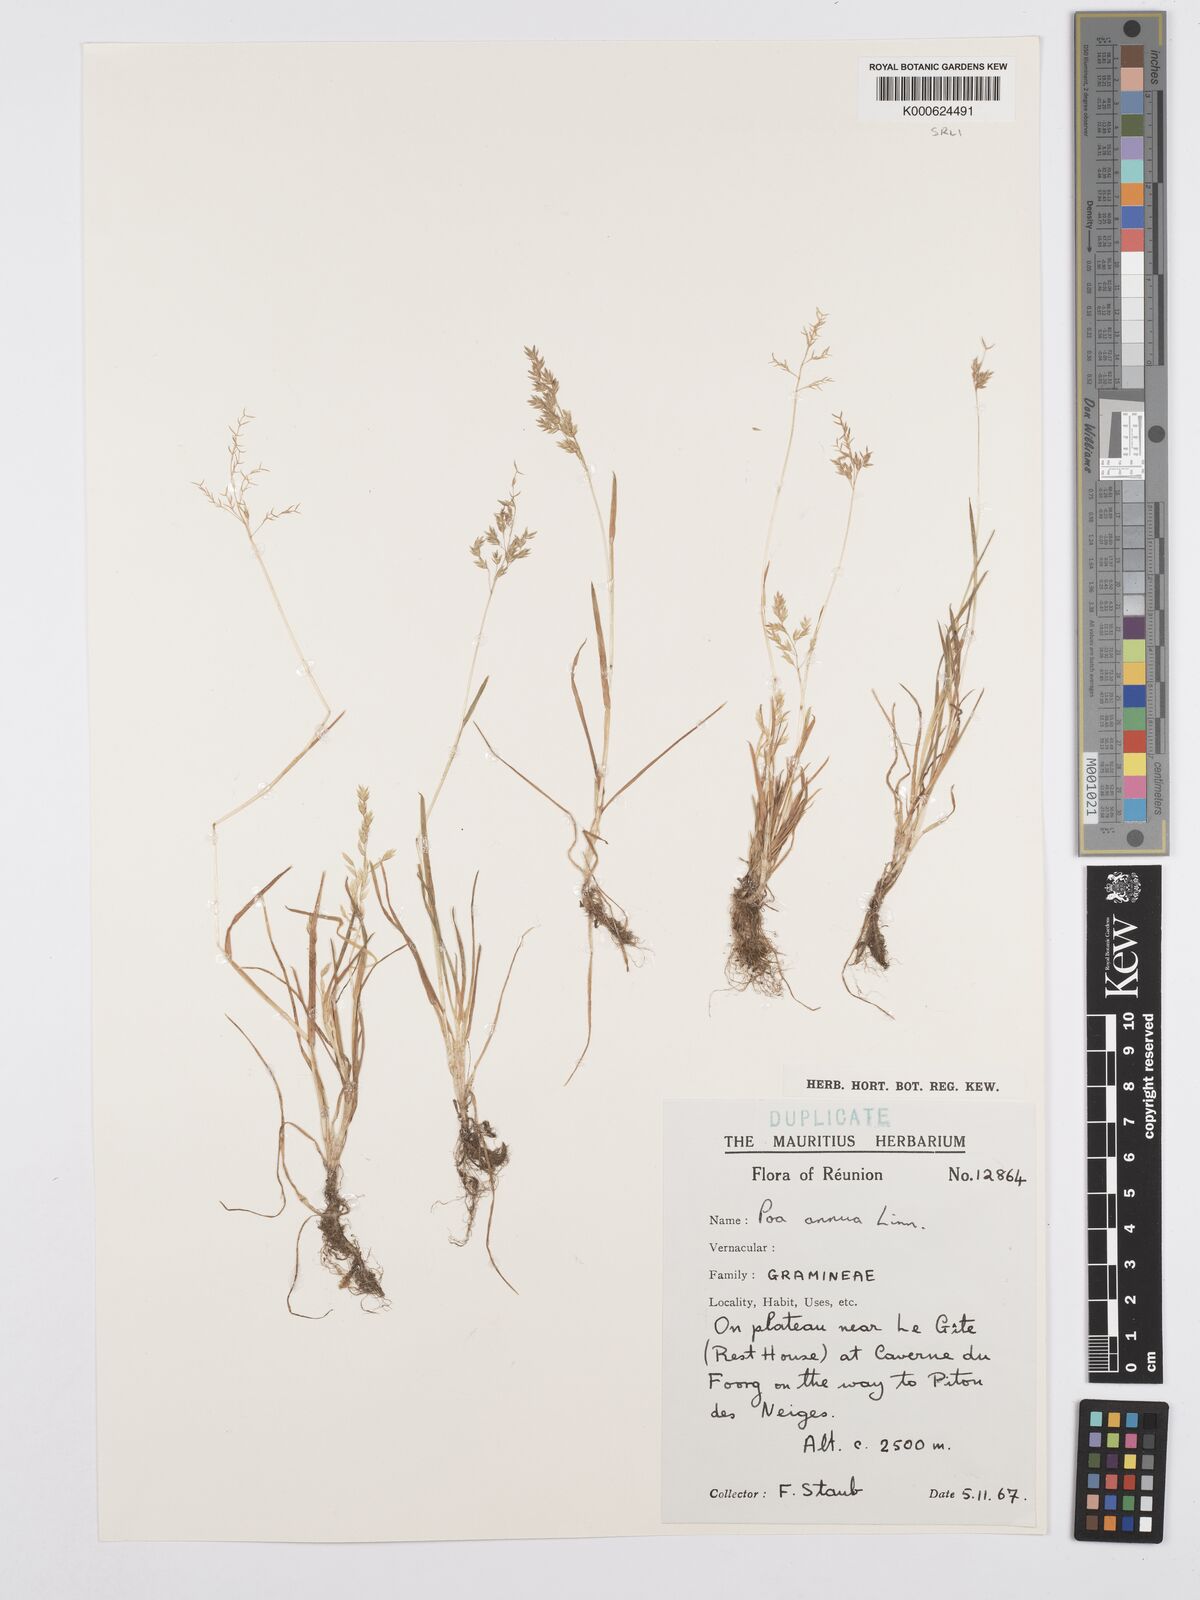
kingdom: Plantae
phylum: Tracheophyta
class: Liliopsida
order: Poales
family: Poaceae
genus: Poa
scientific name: Poa annua
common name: Annual bluegrass
